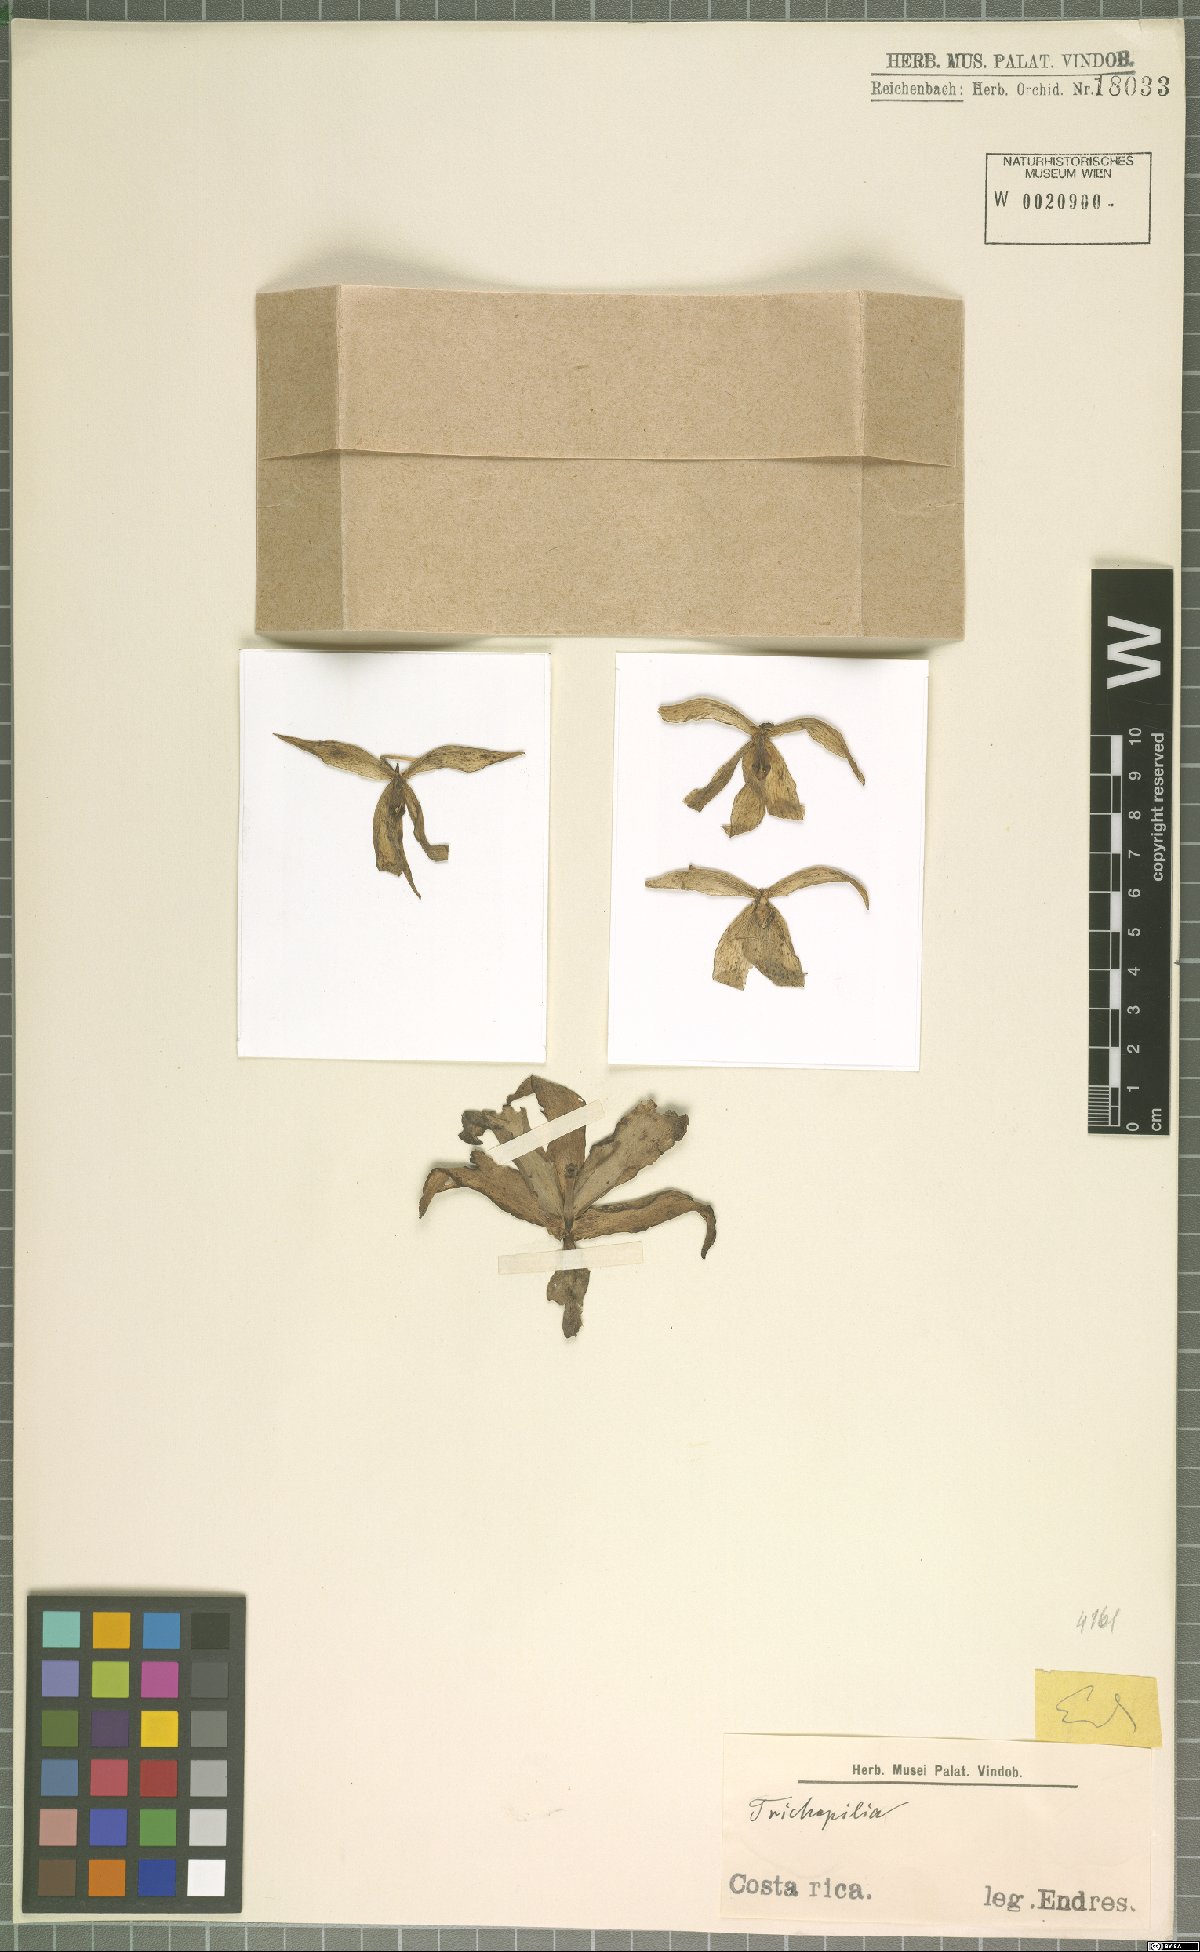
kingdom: Plantae
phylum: Tracheophyta
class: Liliopsida
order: Asparagales
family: Orchidaceae
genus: Trichopilia
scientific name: Trichopilia
